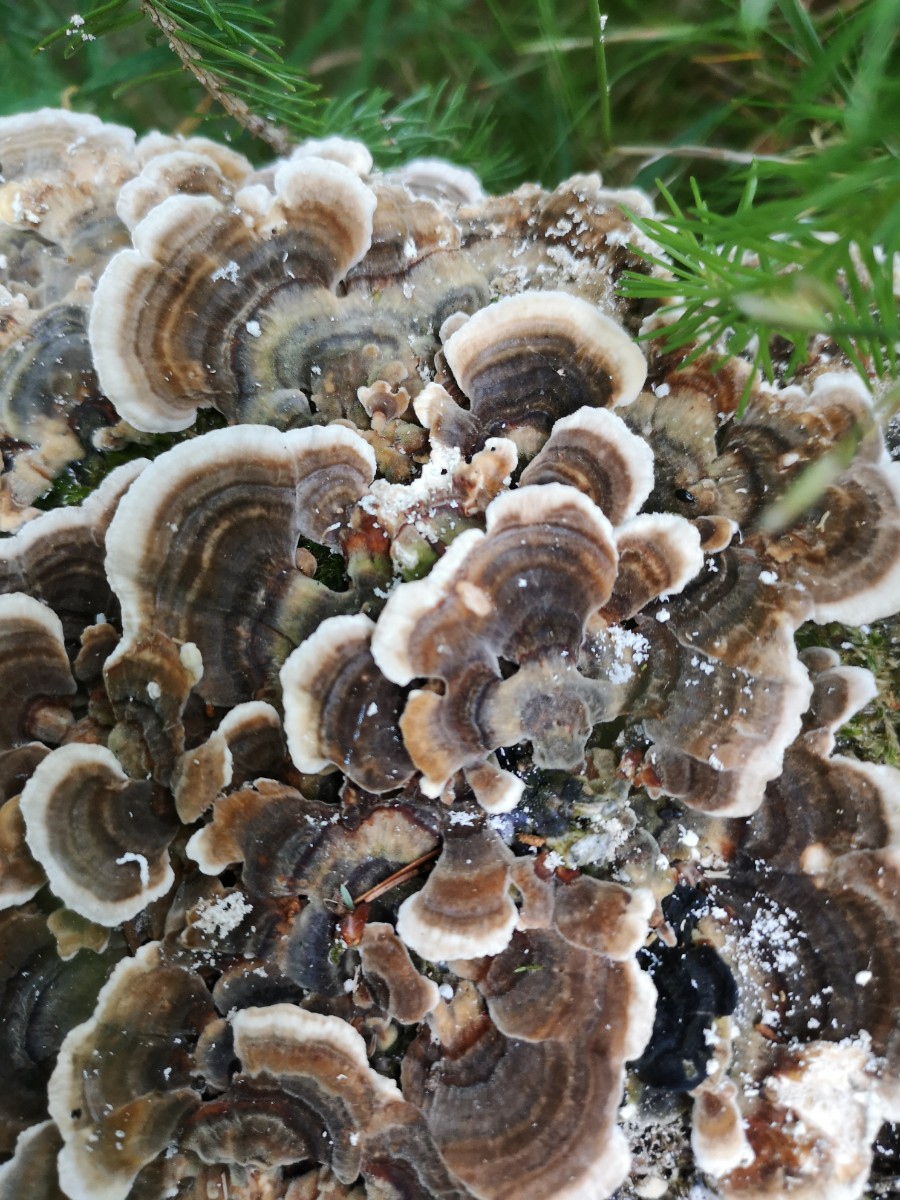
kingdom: Fungi
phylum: Basidiomycota
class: Agaricomycetes
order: Polyporales
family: Polyporaceae
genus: Trametes
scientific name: Trametes versicolor
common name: broget læderporesvamp
